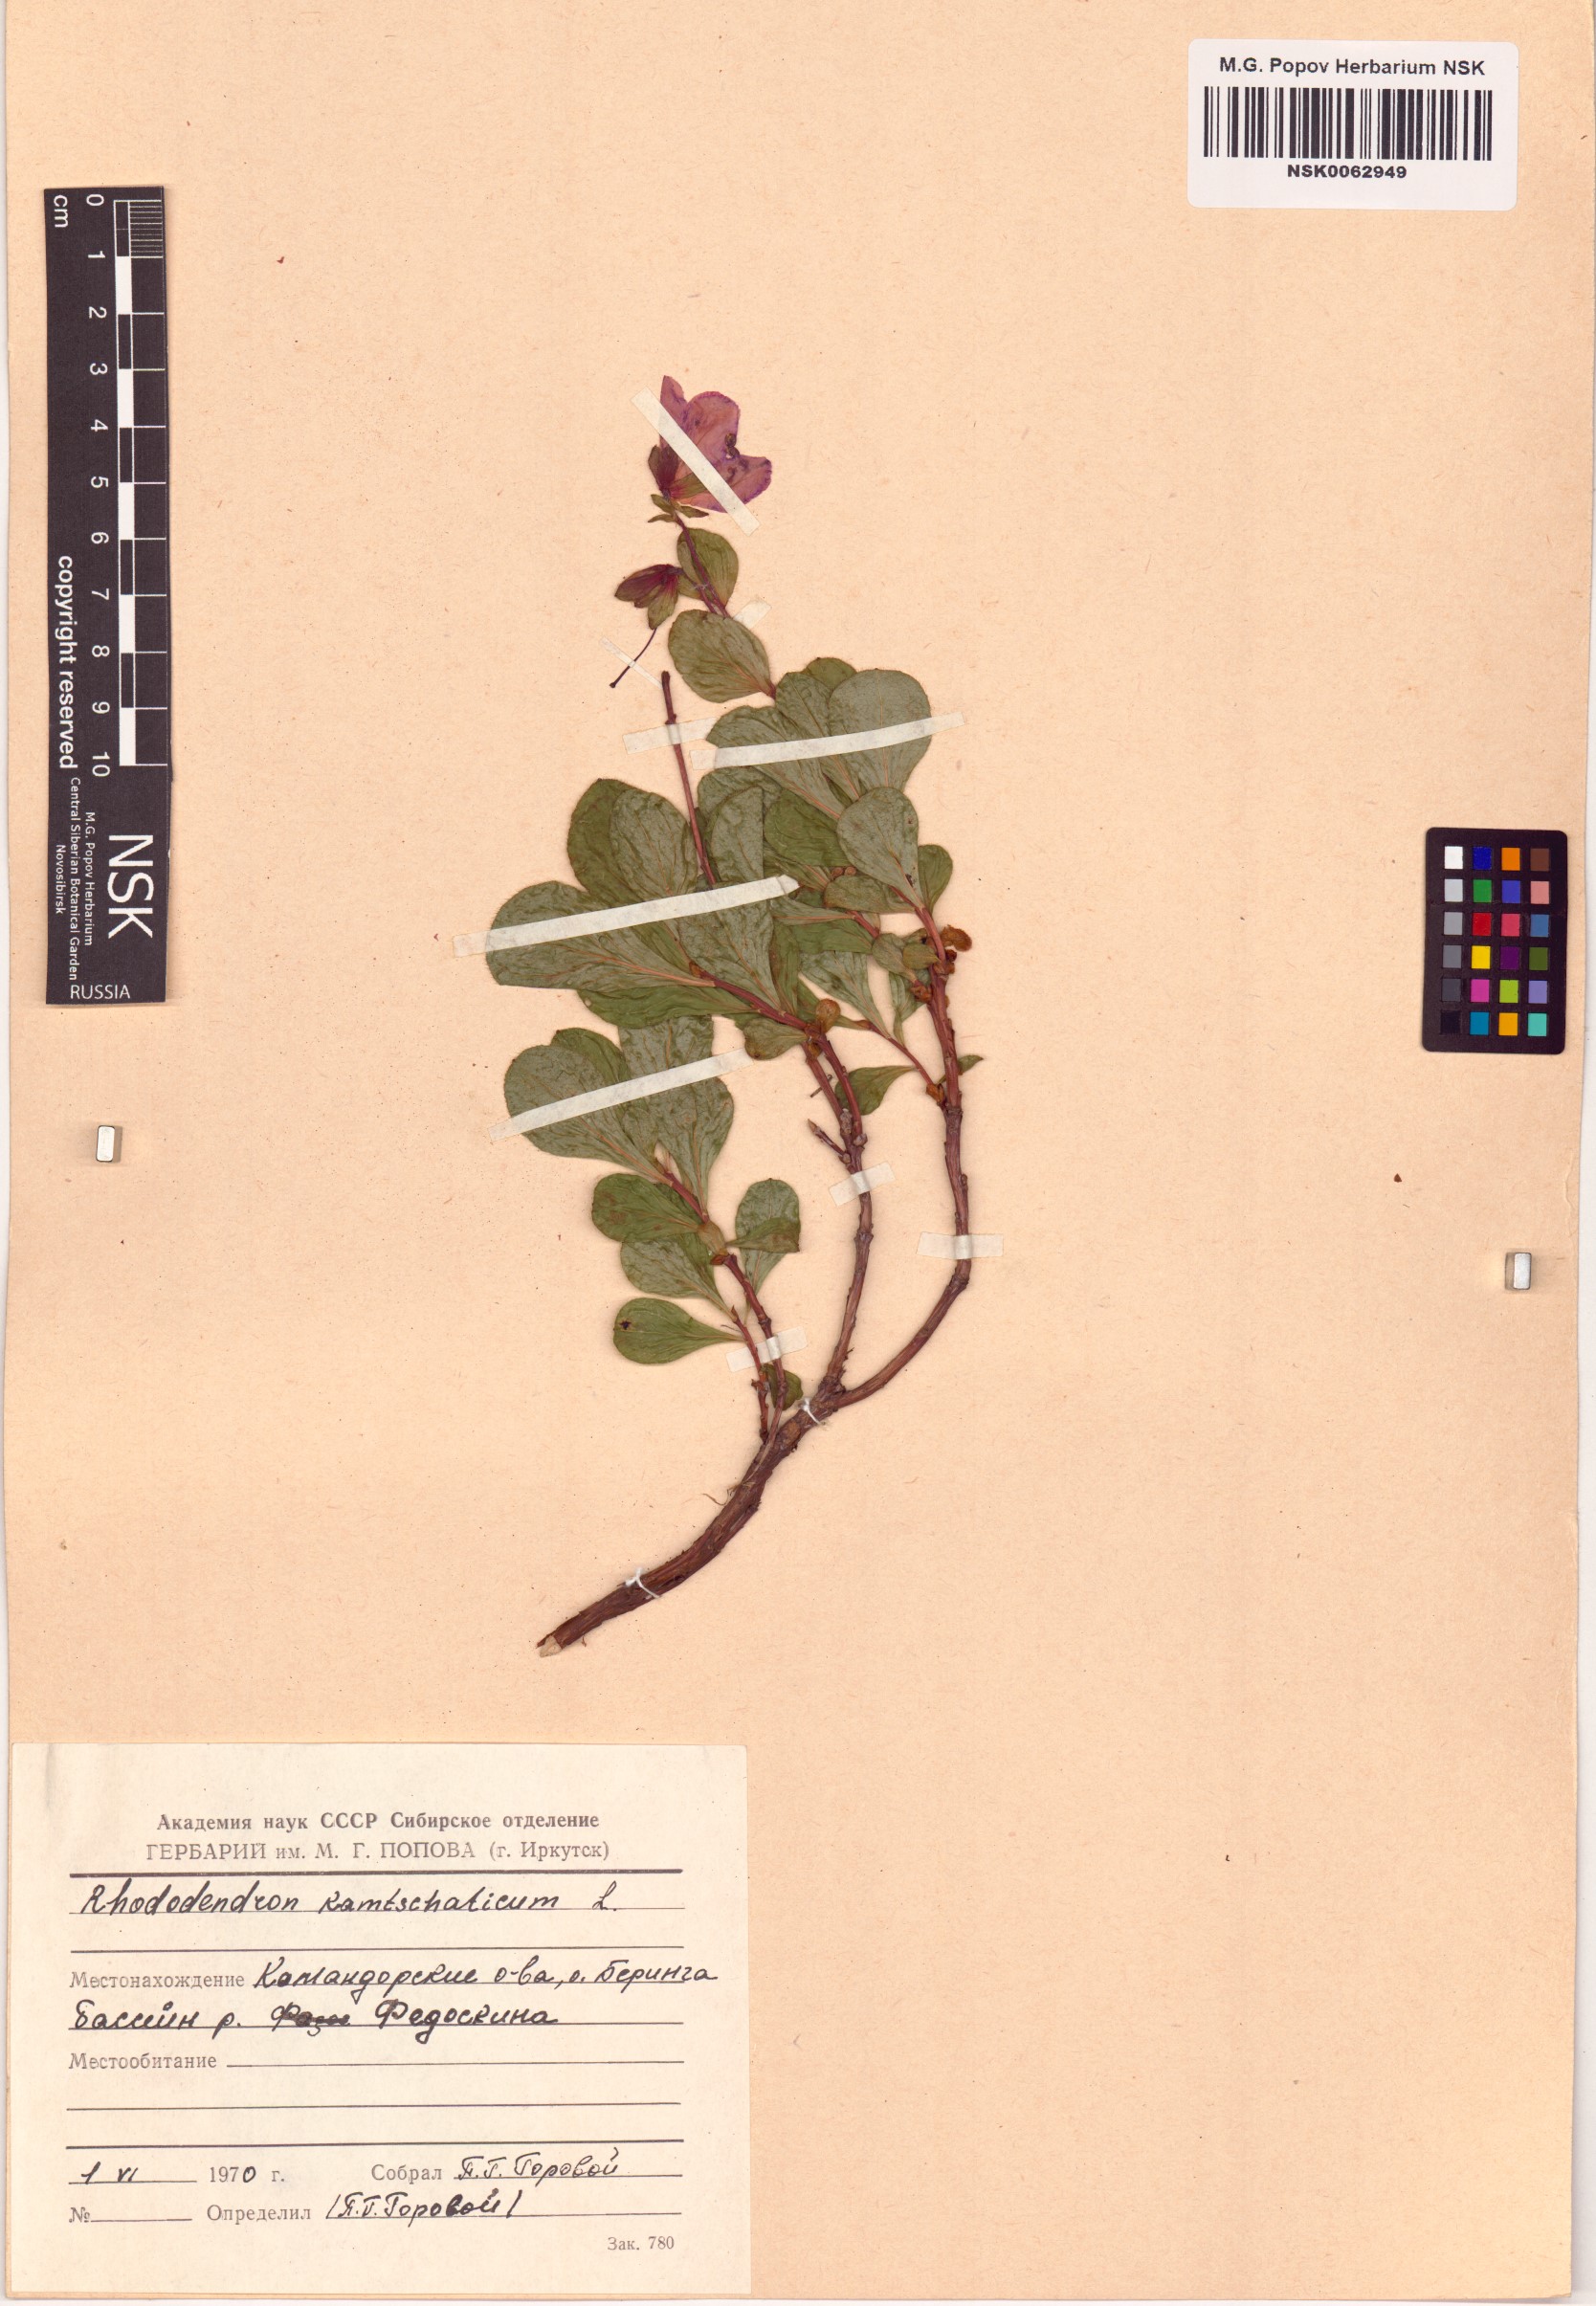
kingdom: Plantae
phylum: Tracheophyta
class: Magnoliopsida
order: Ericales
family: Ericaceae
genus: Rhododendron
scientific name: Rhododendron camtschaticum
